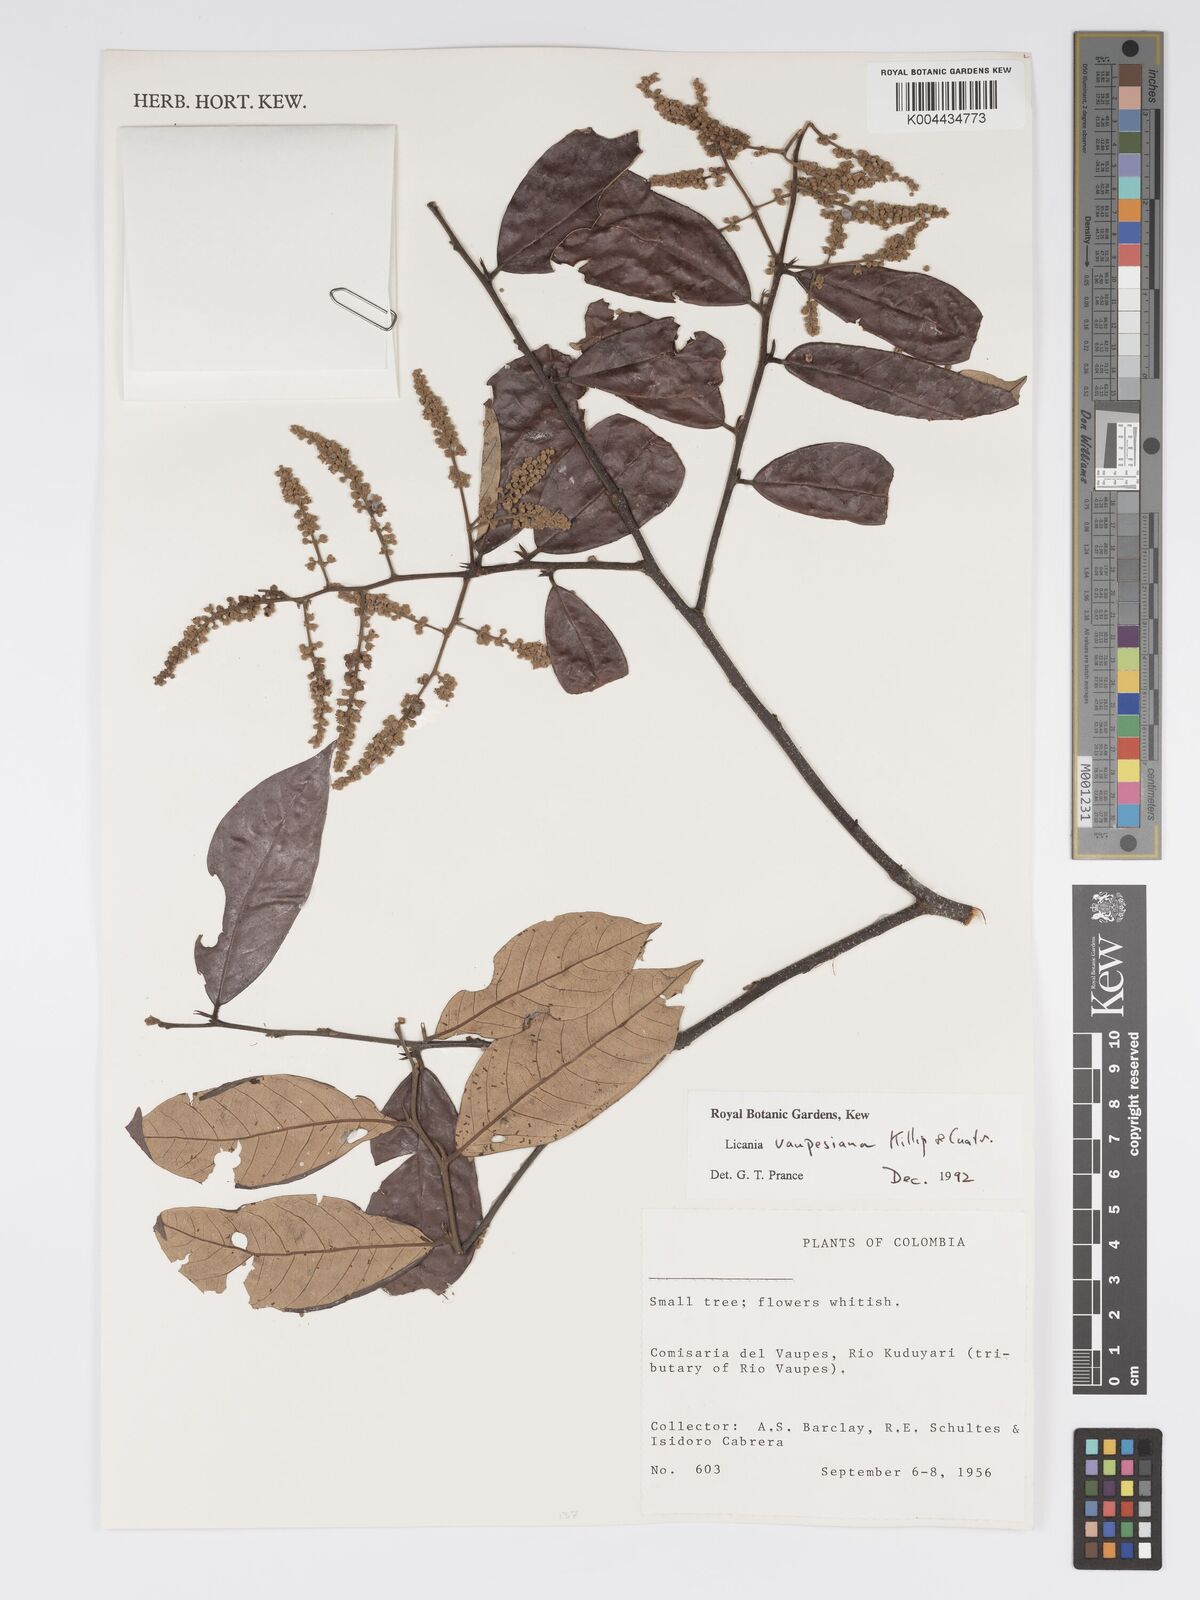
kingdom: Plantae
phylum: Tracheophyta
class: Magnoliopsida
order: Malpighiales
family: Chrysobalanaceae
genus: Licania
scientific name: Licania
